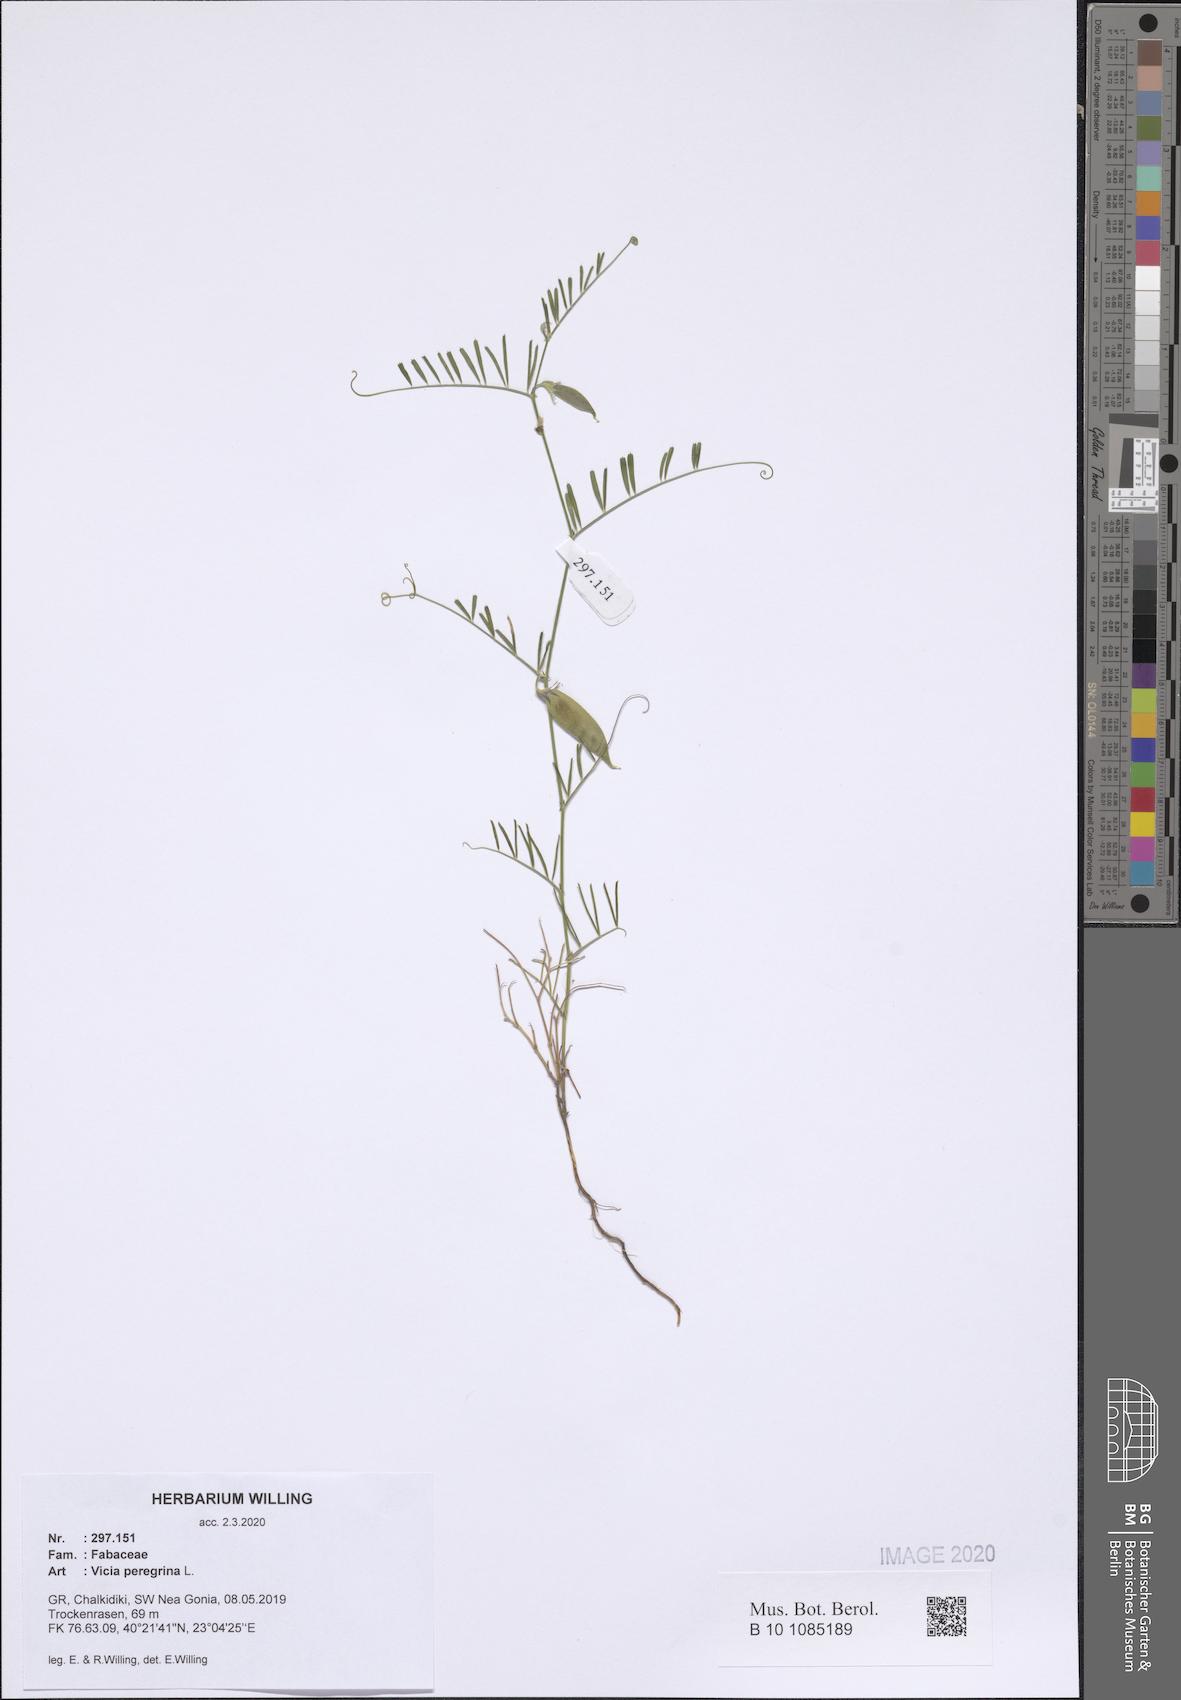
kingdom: Plantae
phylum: Tracheophyta
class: Magnoliopsida
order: Fabales
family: Fabaceae
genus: Vicia
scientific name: Vicia peregrina
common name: Broad-pod vetch
